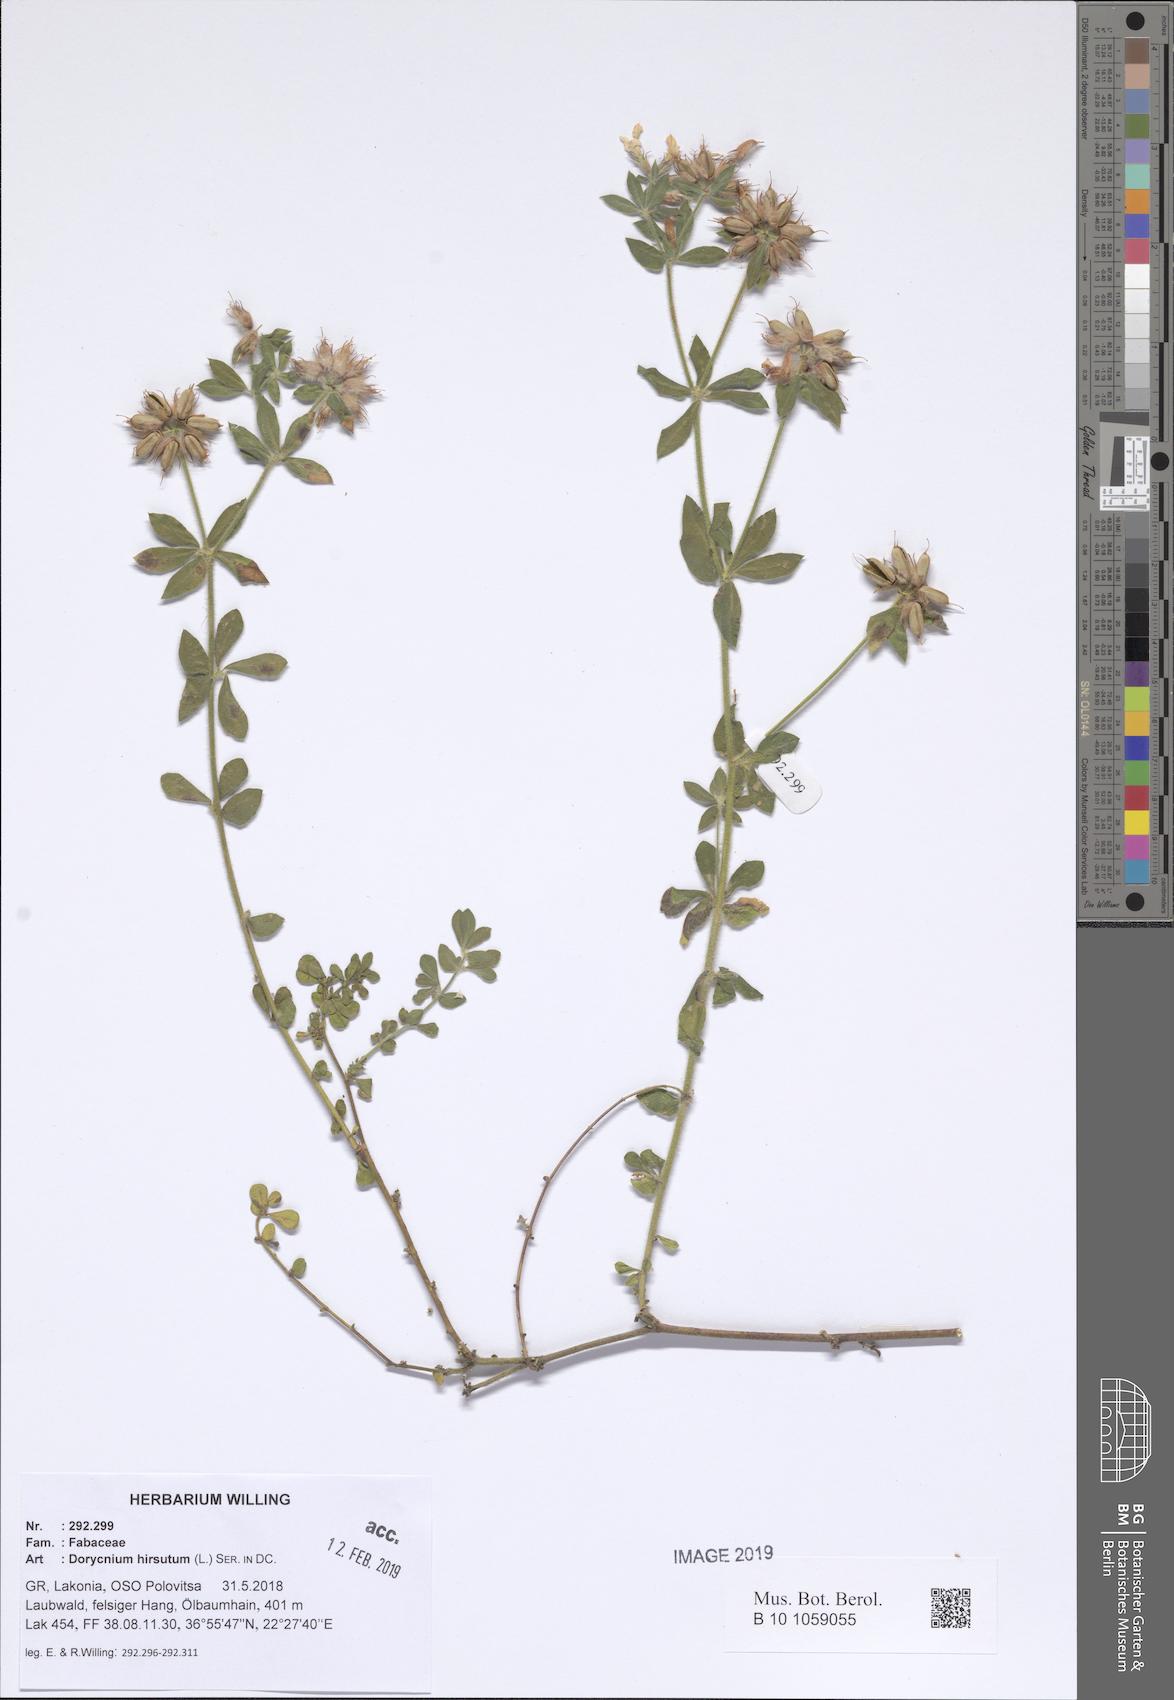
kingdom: Plantae
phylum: Tracheophyta
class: Magnoliopsida
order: Fabales
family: Fabaceae
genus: Lotus
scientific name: Lotus hirsutus
